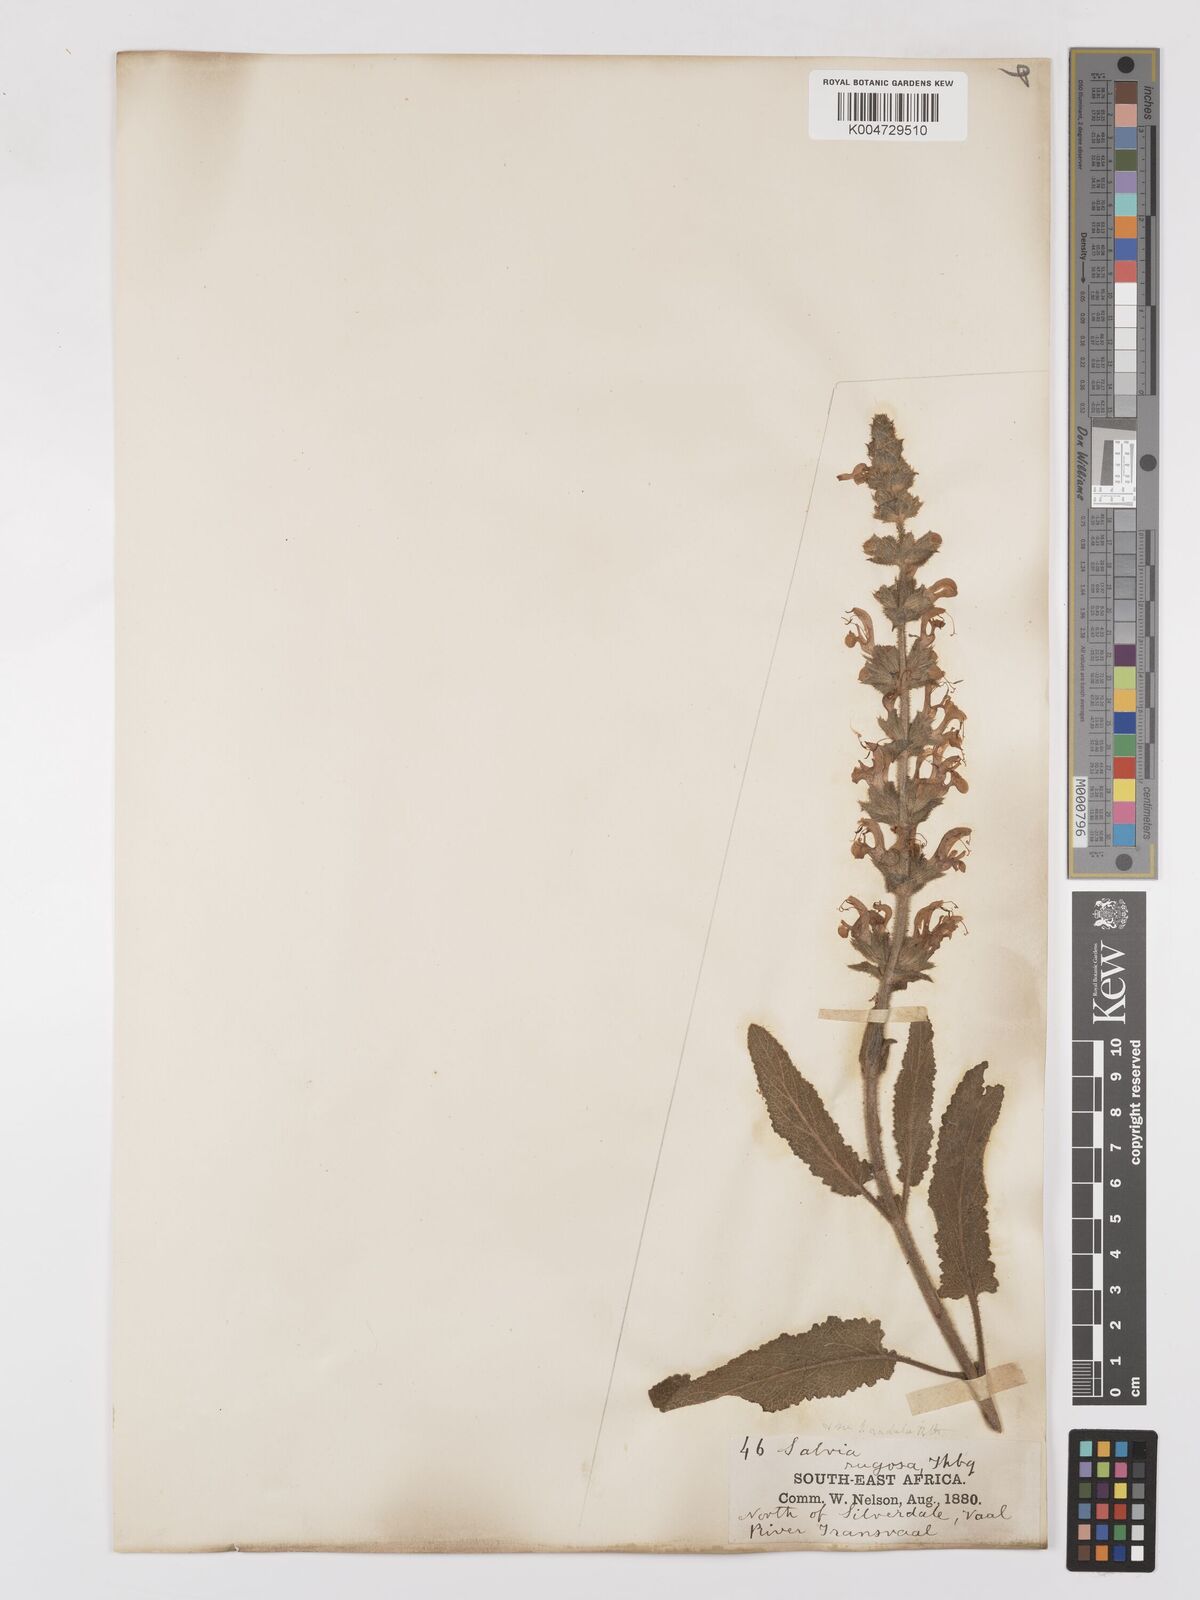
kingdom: Plantae
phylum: Tracheophyta
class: Magnoliopsida
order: Lamiales
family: Lamiaceae
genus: Salvia
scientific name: Salvia
